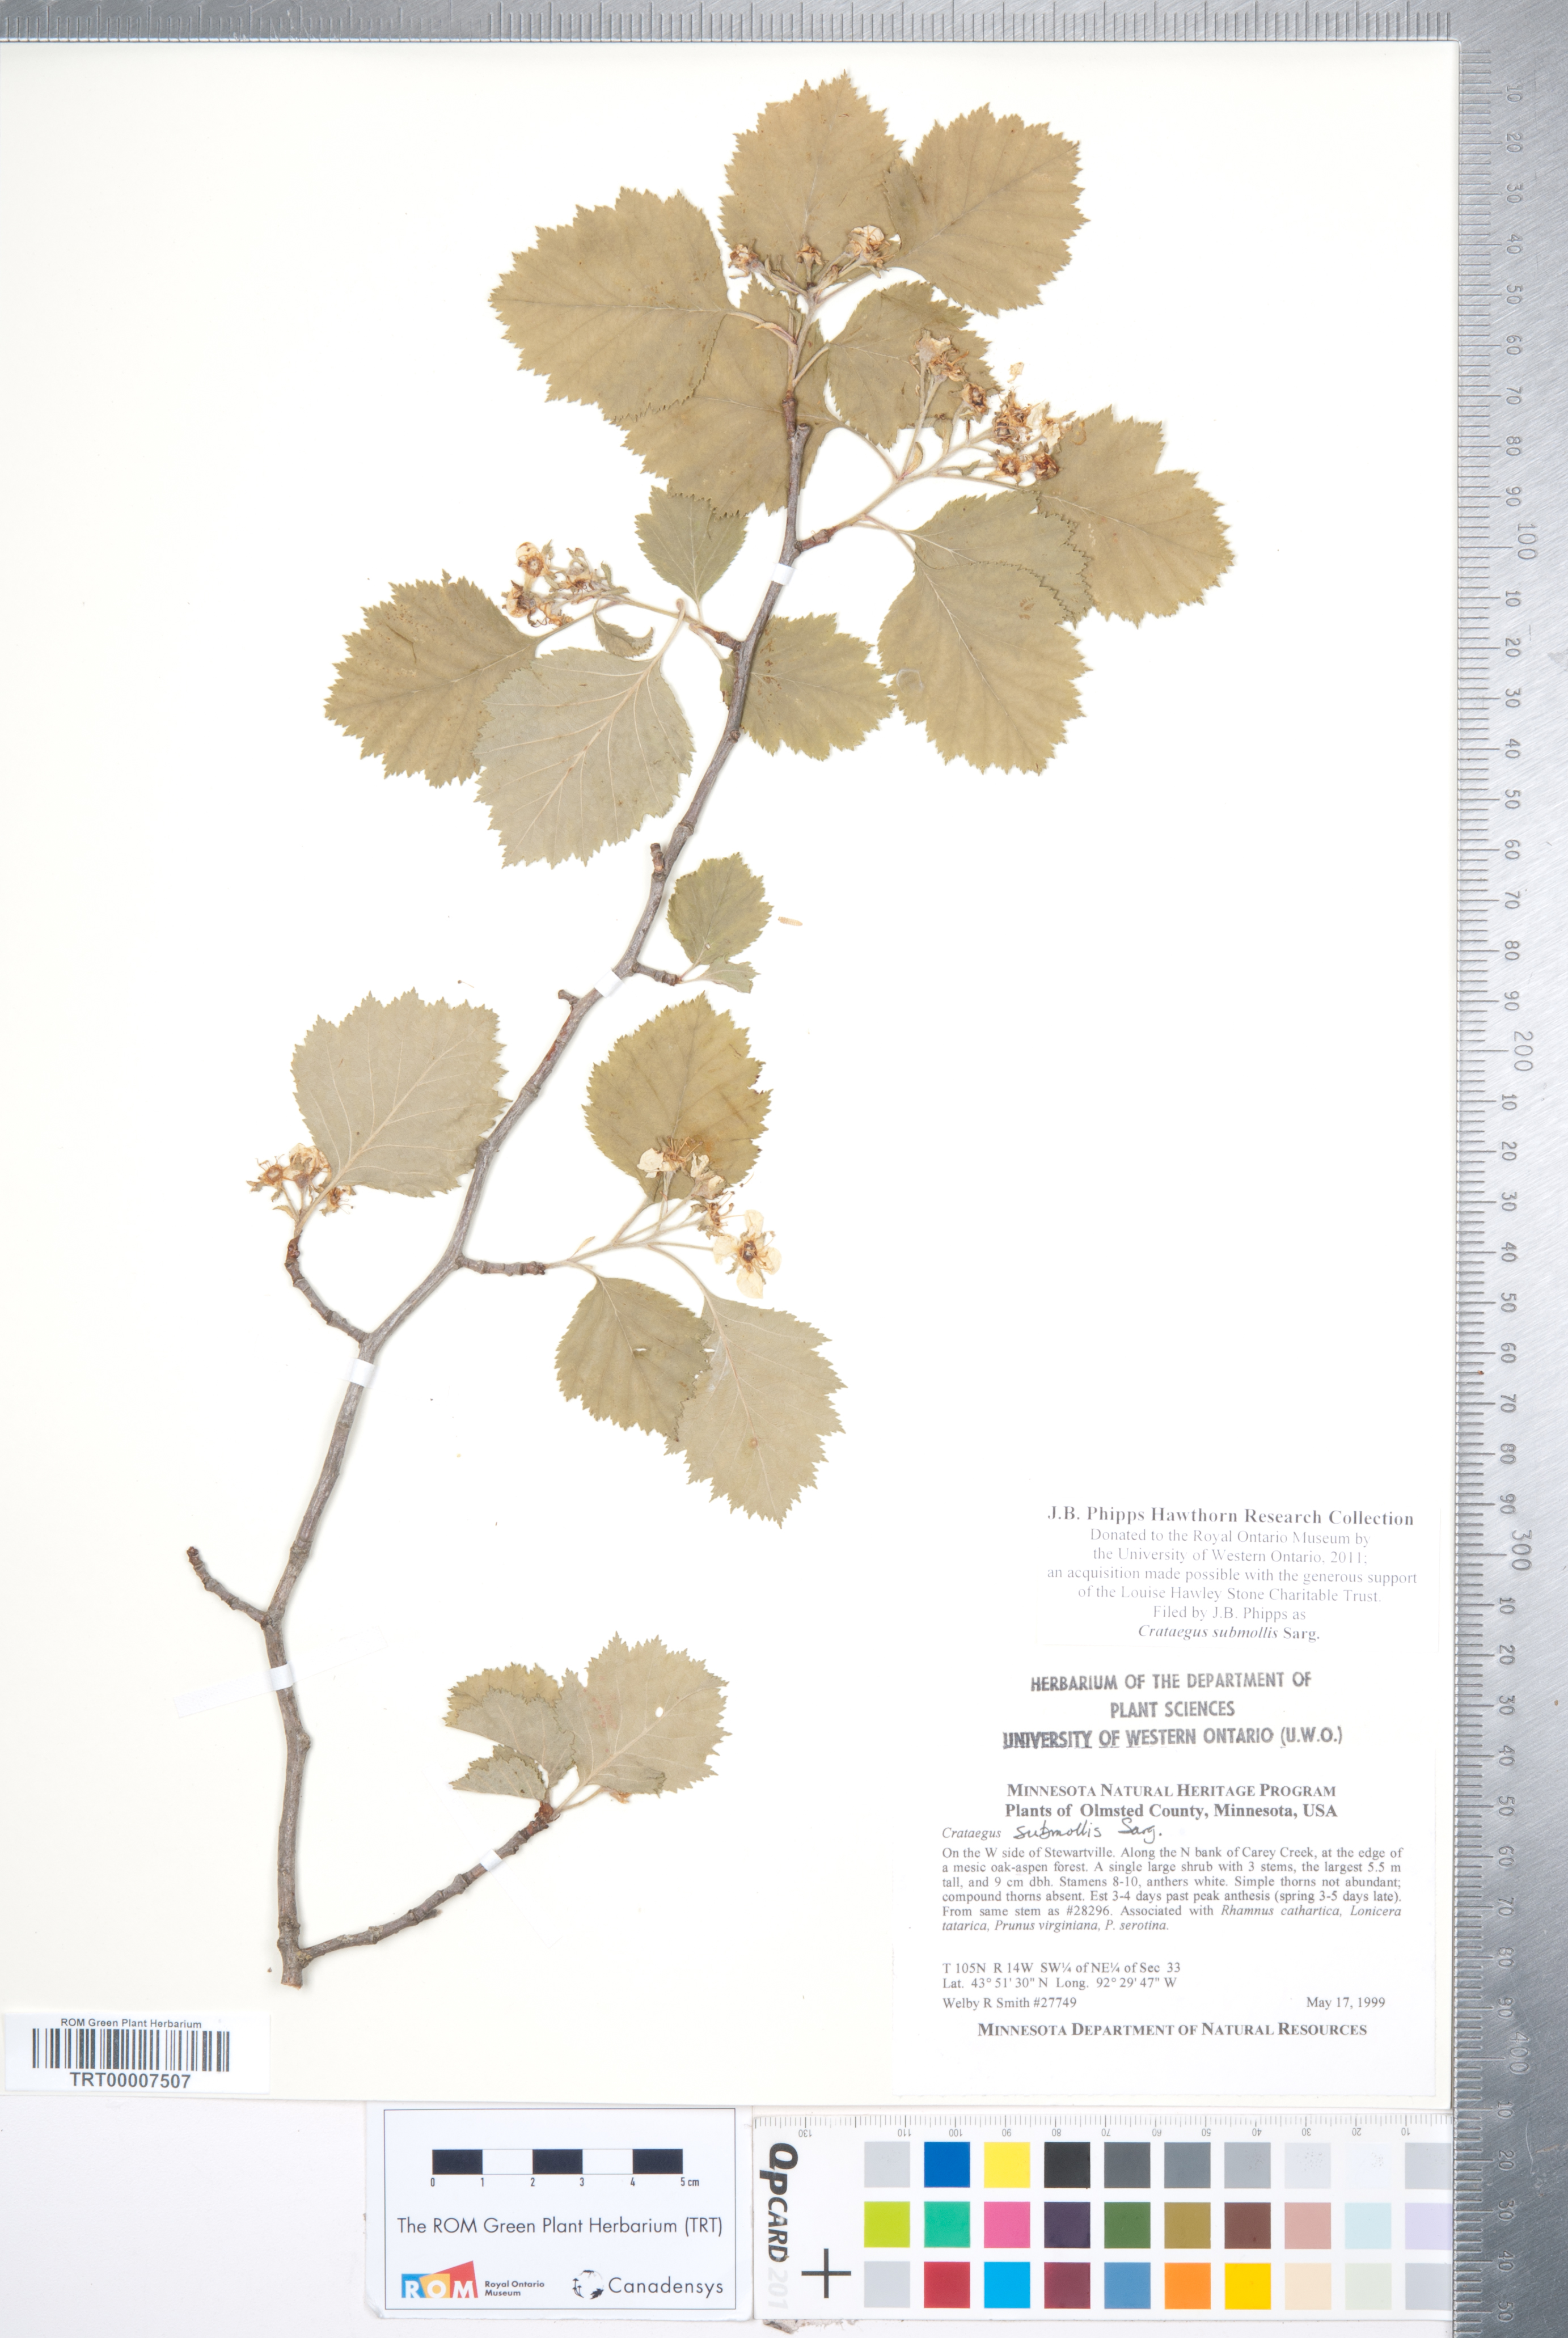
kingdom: Plantae
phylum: Tracheophyta
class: Magnoliopsida
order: Rosales
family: Rosaceae
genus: Crataegus
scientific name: Crataegus submollis
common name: Hairy cockspurthorn
